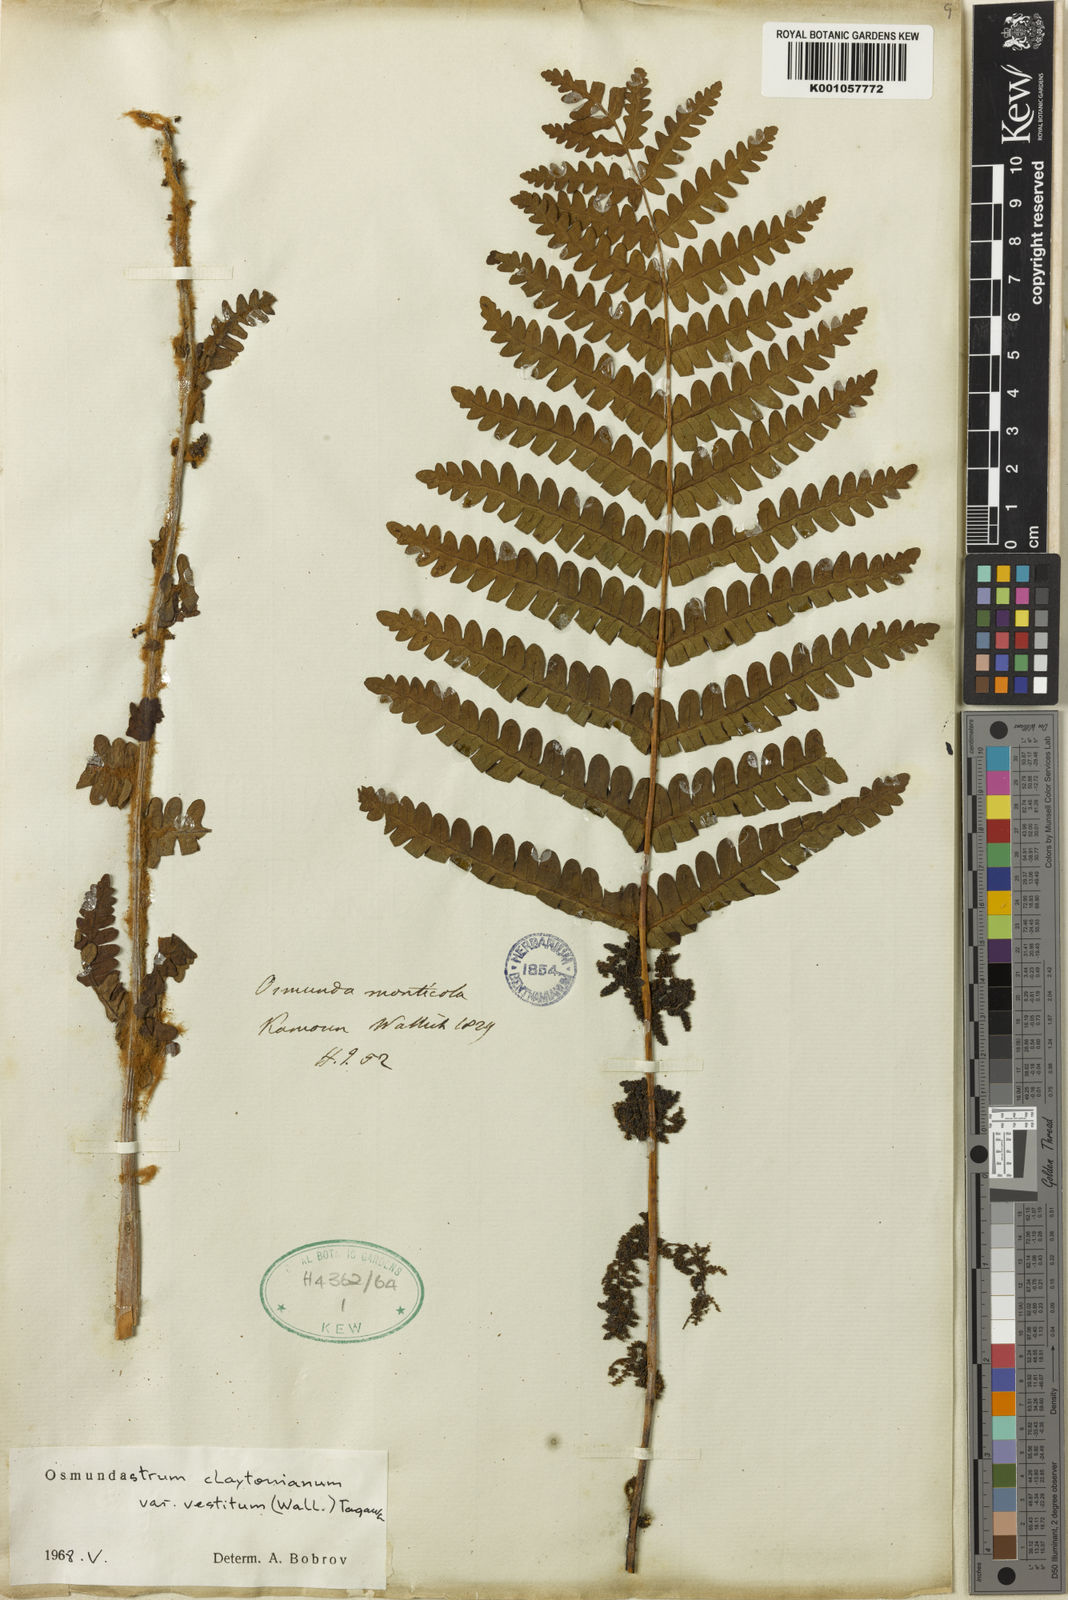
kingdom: Plantae
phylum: Tracheophyta
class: Polypodiopsida
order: Osmundales
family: Osmundaceae
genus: Claytosmunda
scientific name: Claytosmunda claytoniana
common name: Clayton's fern
